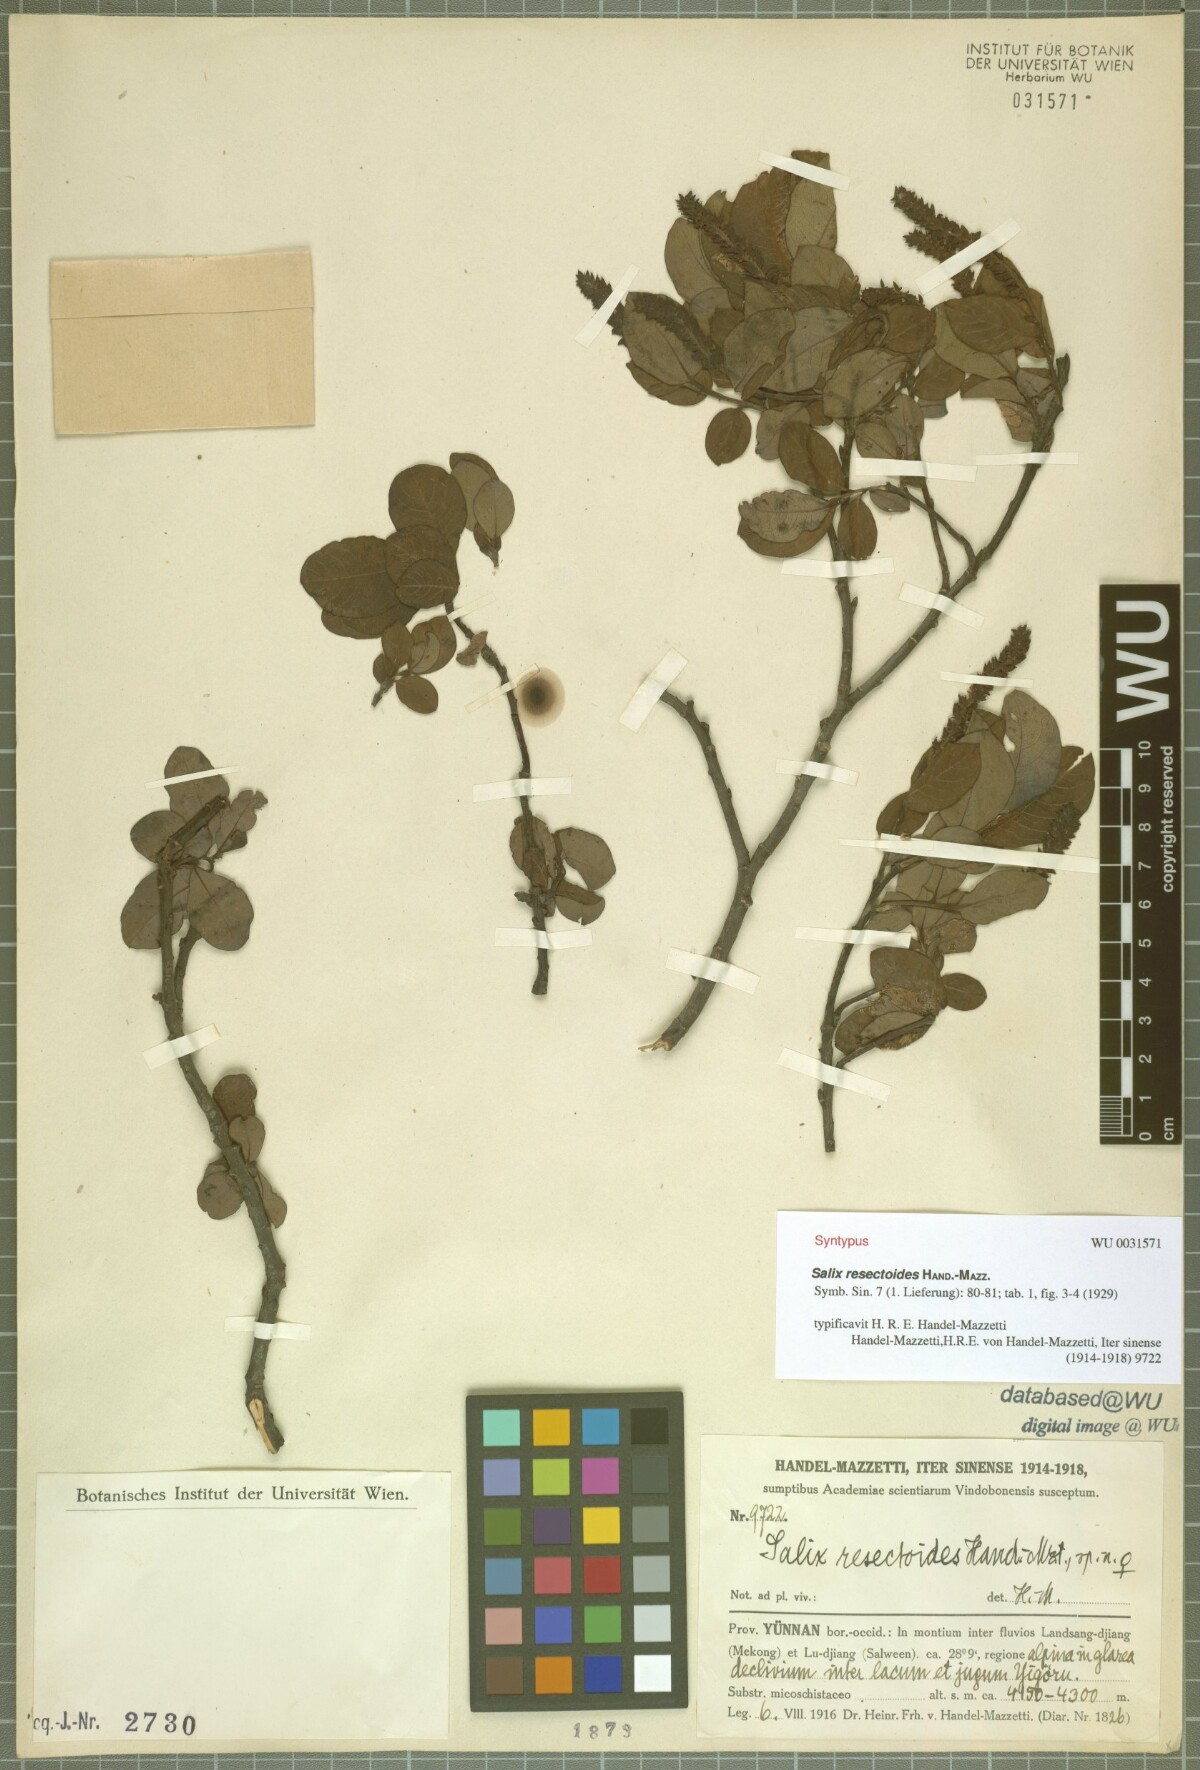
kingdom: Plantae
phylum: Tracheophyta
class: Magnoliopsida
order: Malpighiales
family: Salicaceae
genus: Salix
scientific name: Salix resectoides
